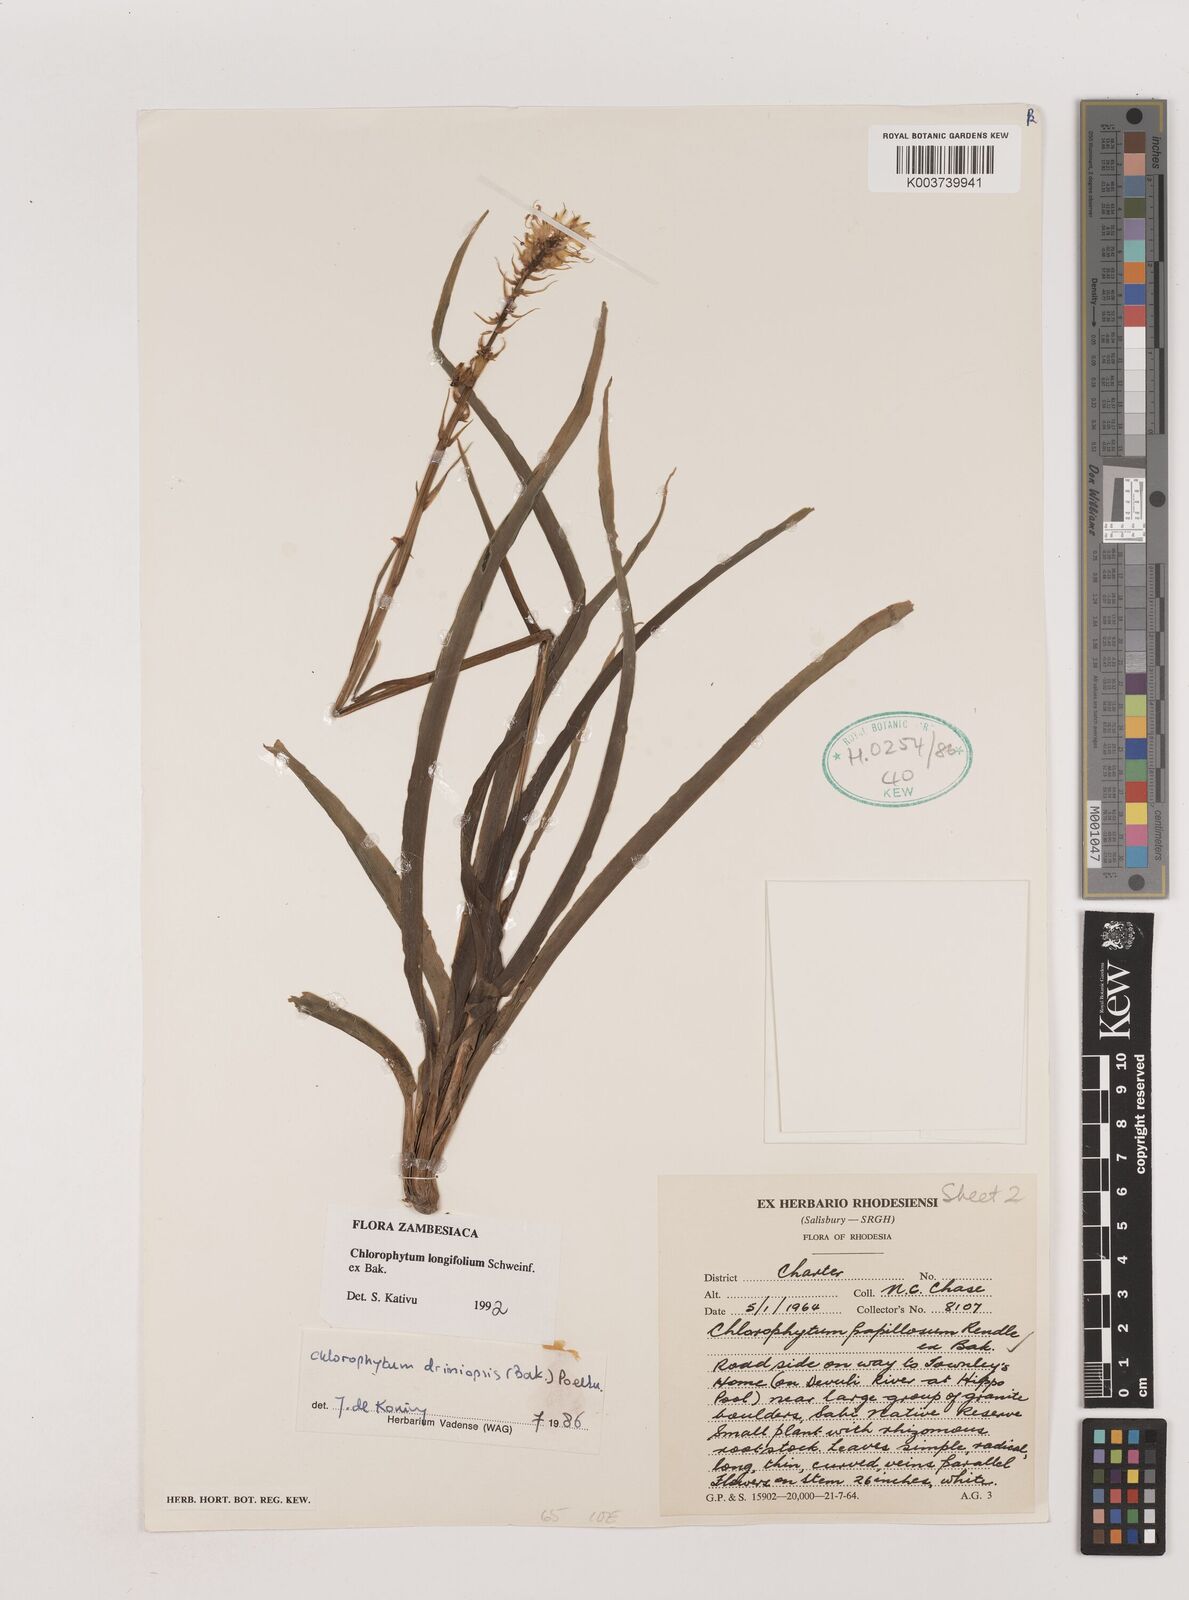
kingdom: Plantae
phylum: Tracheophyta
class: Liliopsida
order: Asparagales
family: Asparagaceae
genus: Chlorophytum
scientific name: Chlorophytum longifolium
